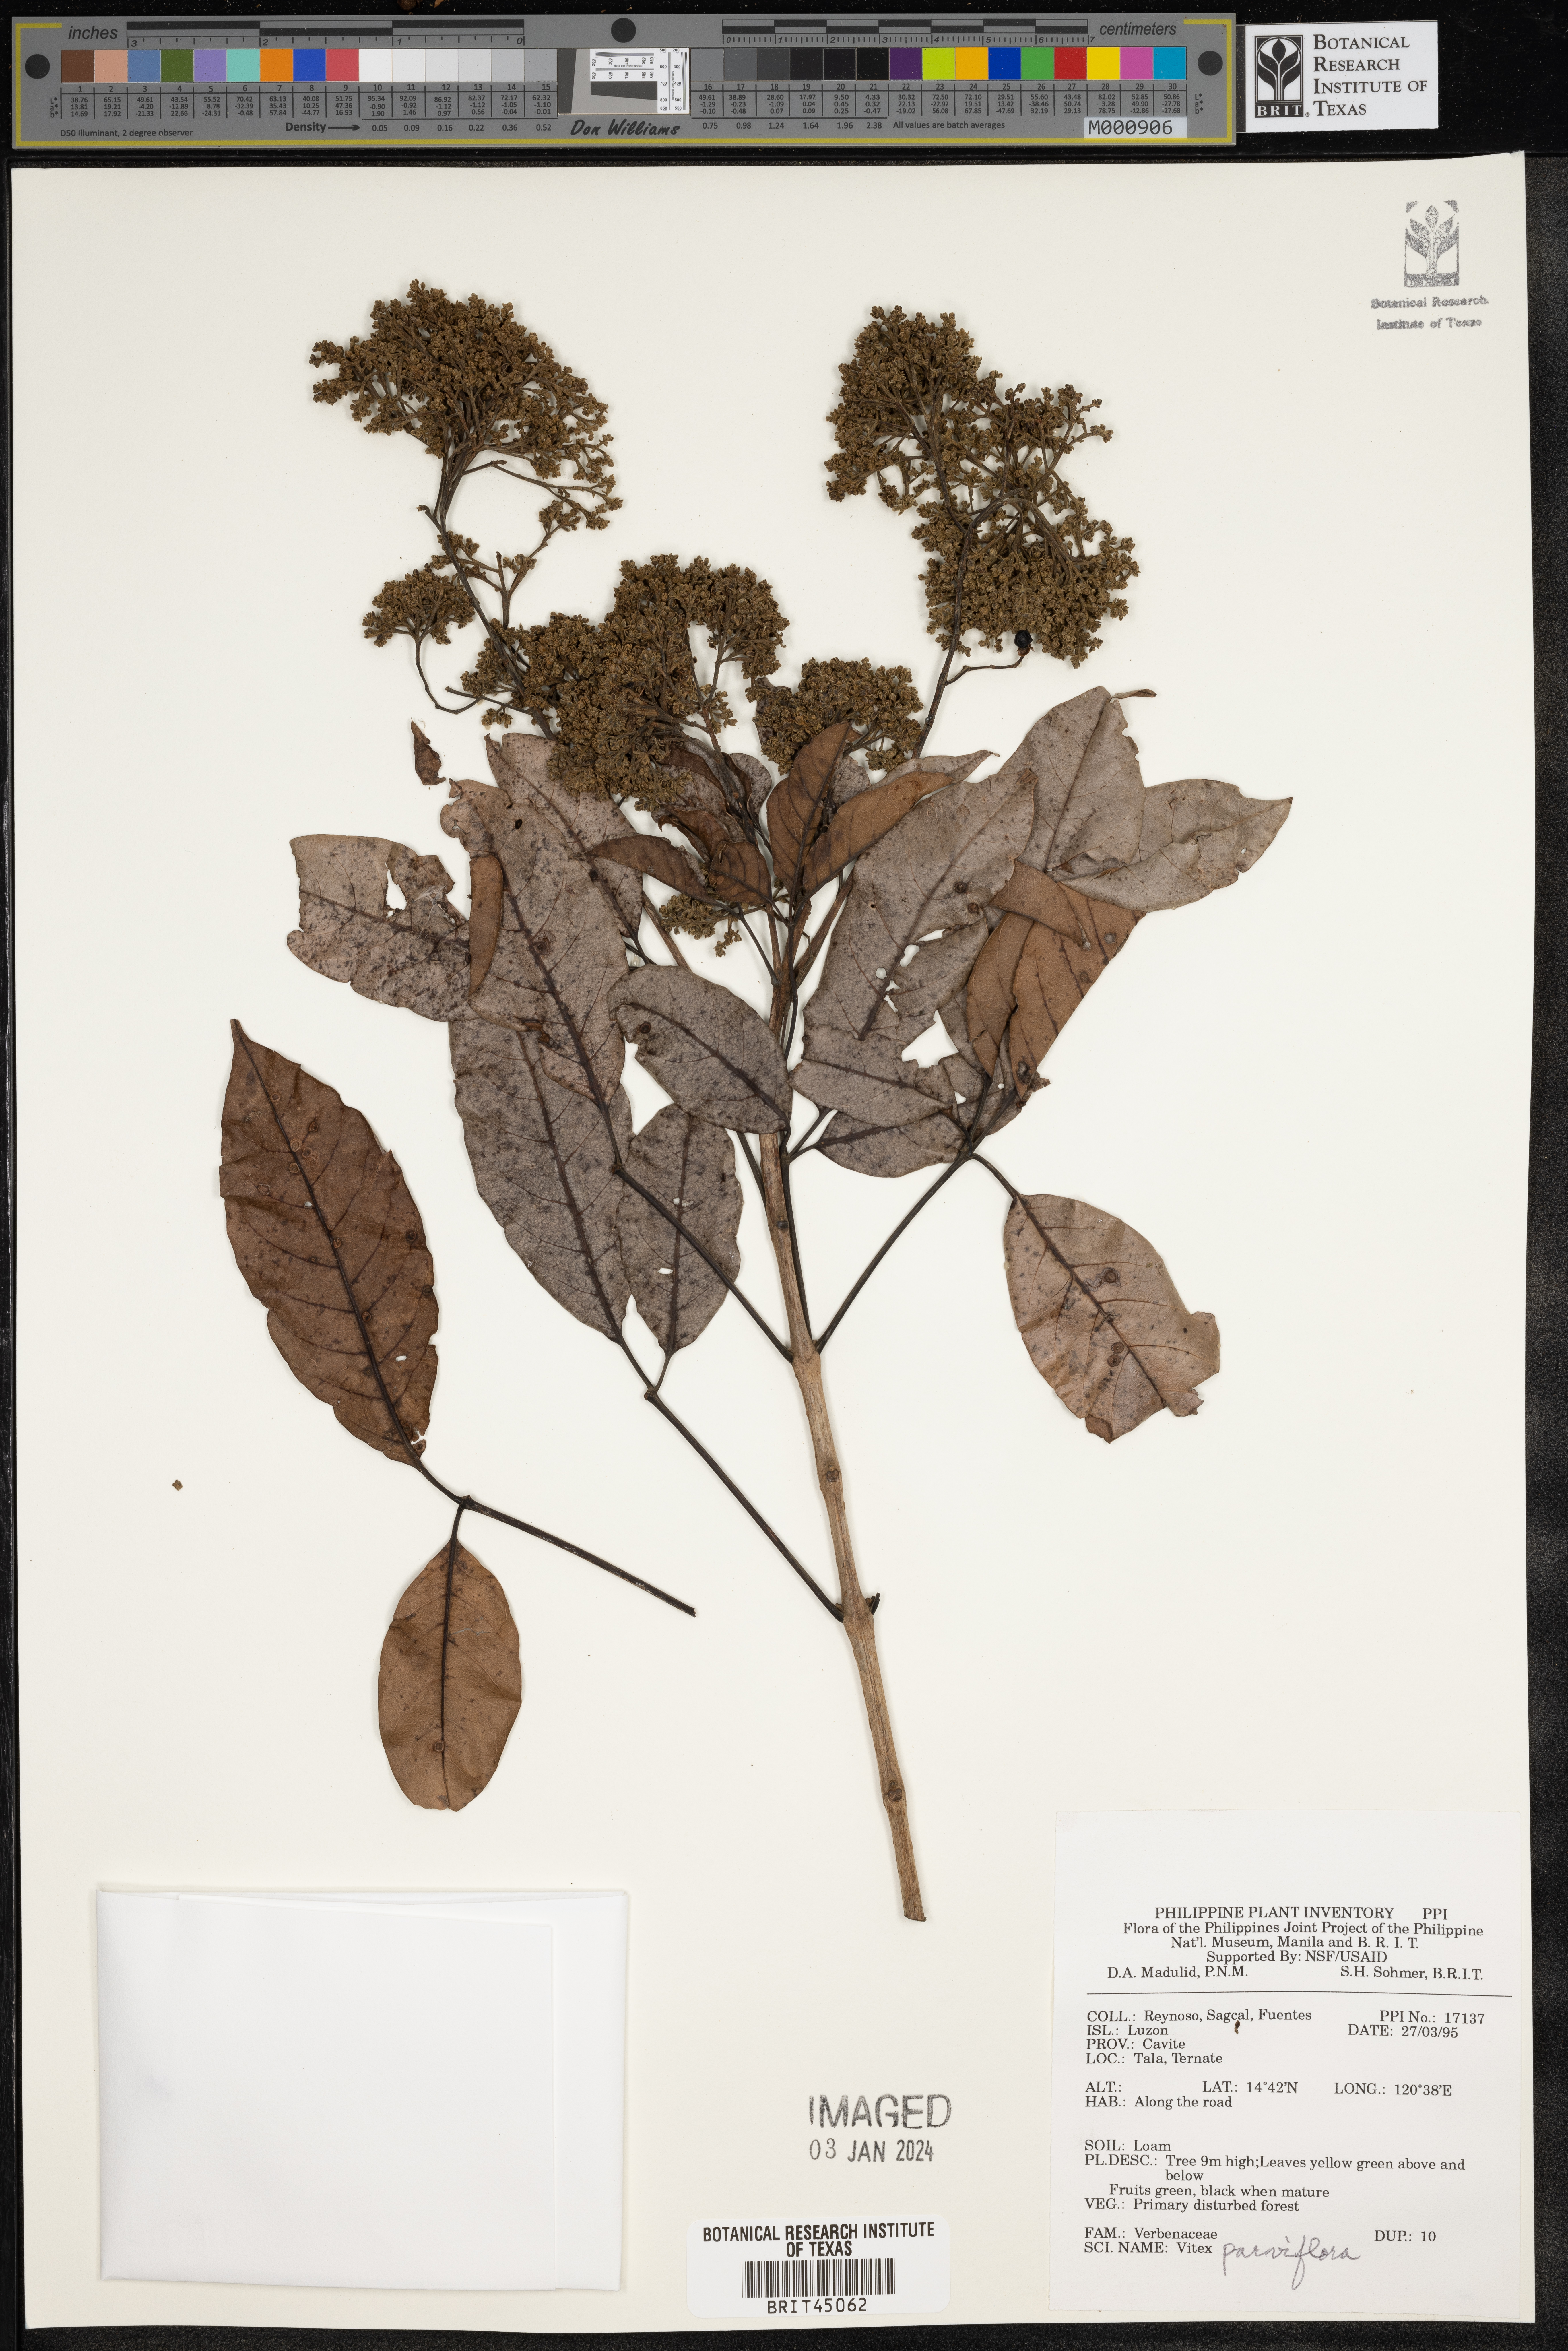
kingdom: Plantae
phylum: Tracheophyta
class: Magnoliopsida
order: Lamiales
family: Lamiaceae
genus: Vitex
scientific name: Vitex parviflora
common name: Smallflower chastetree
